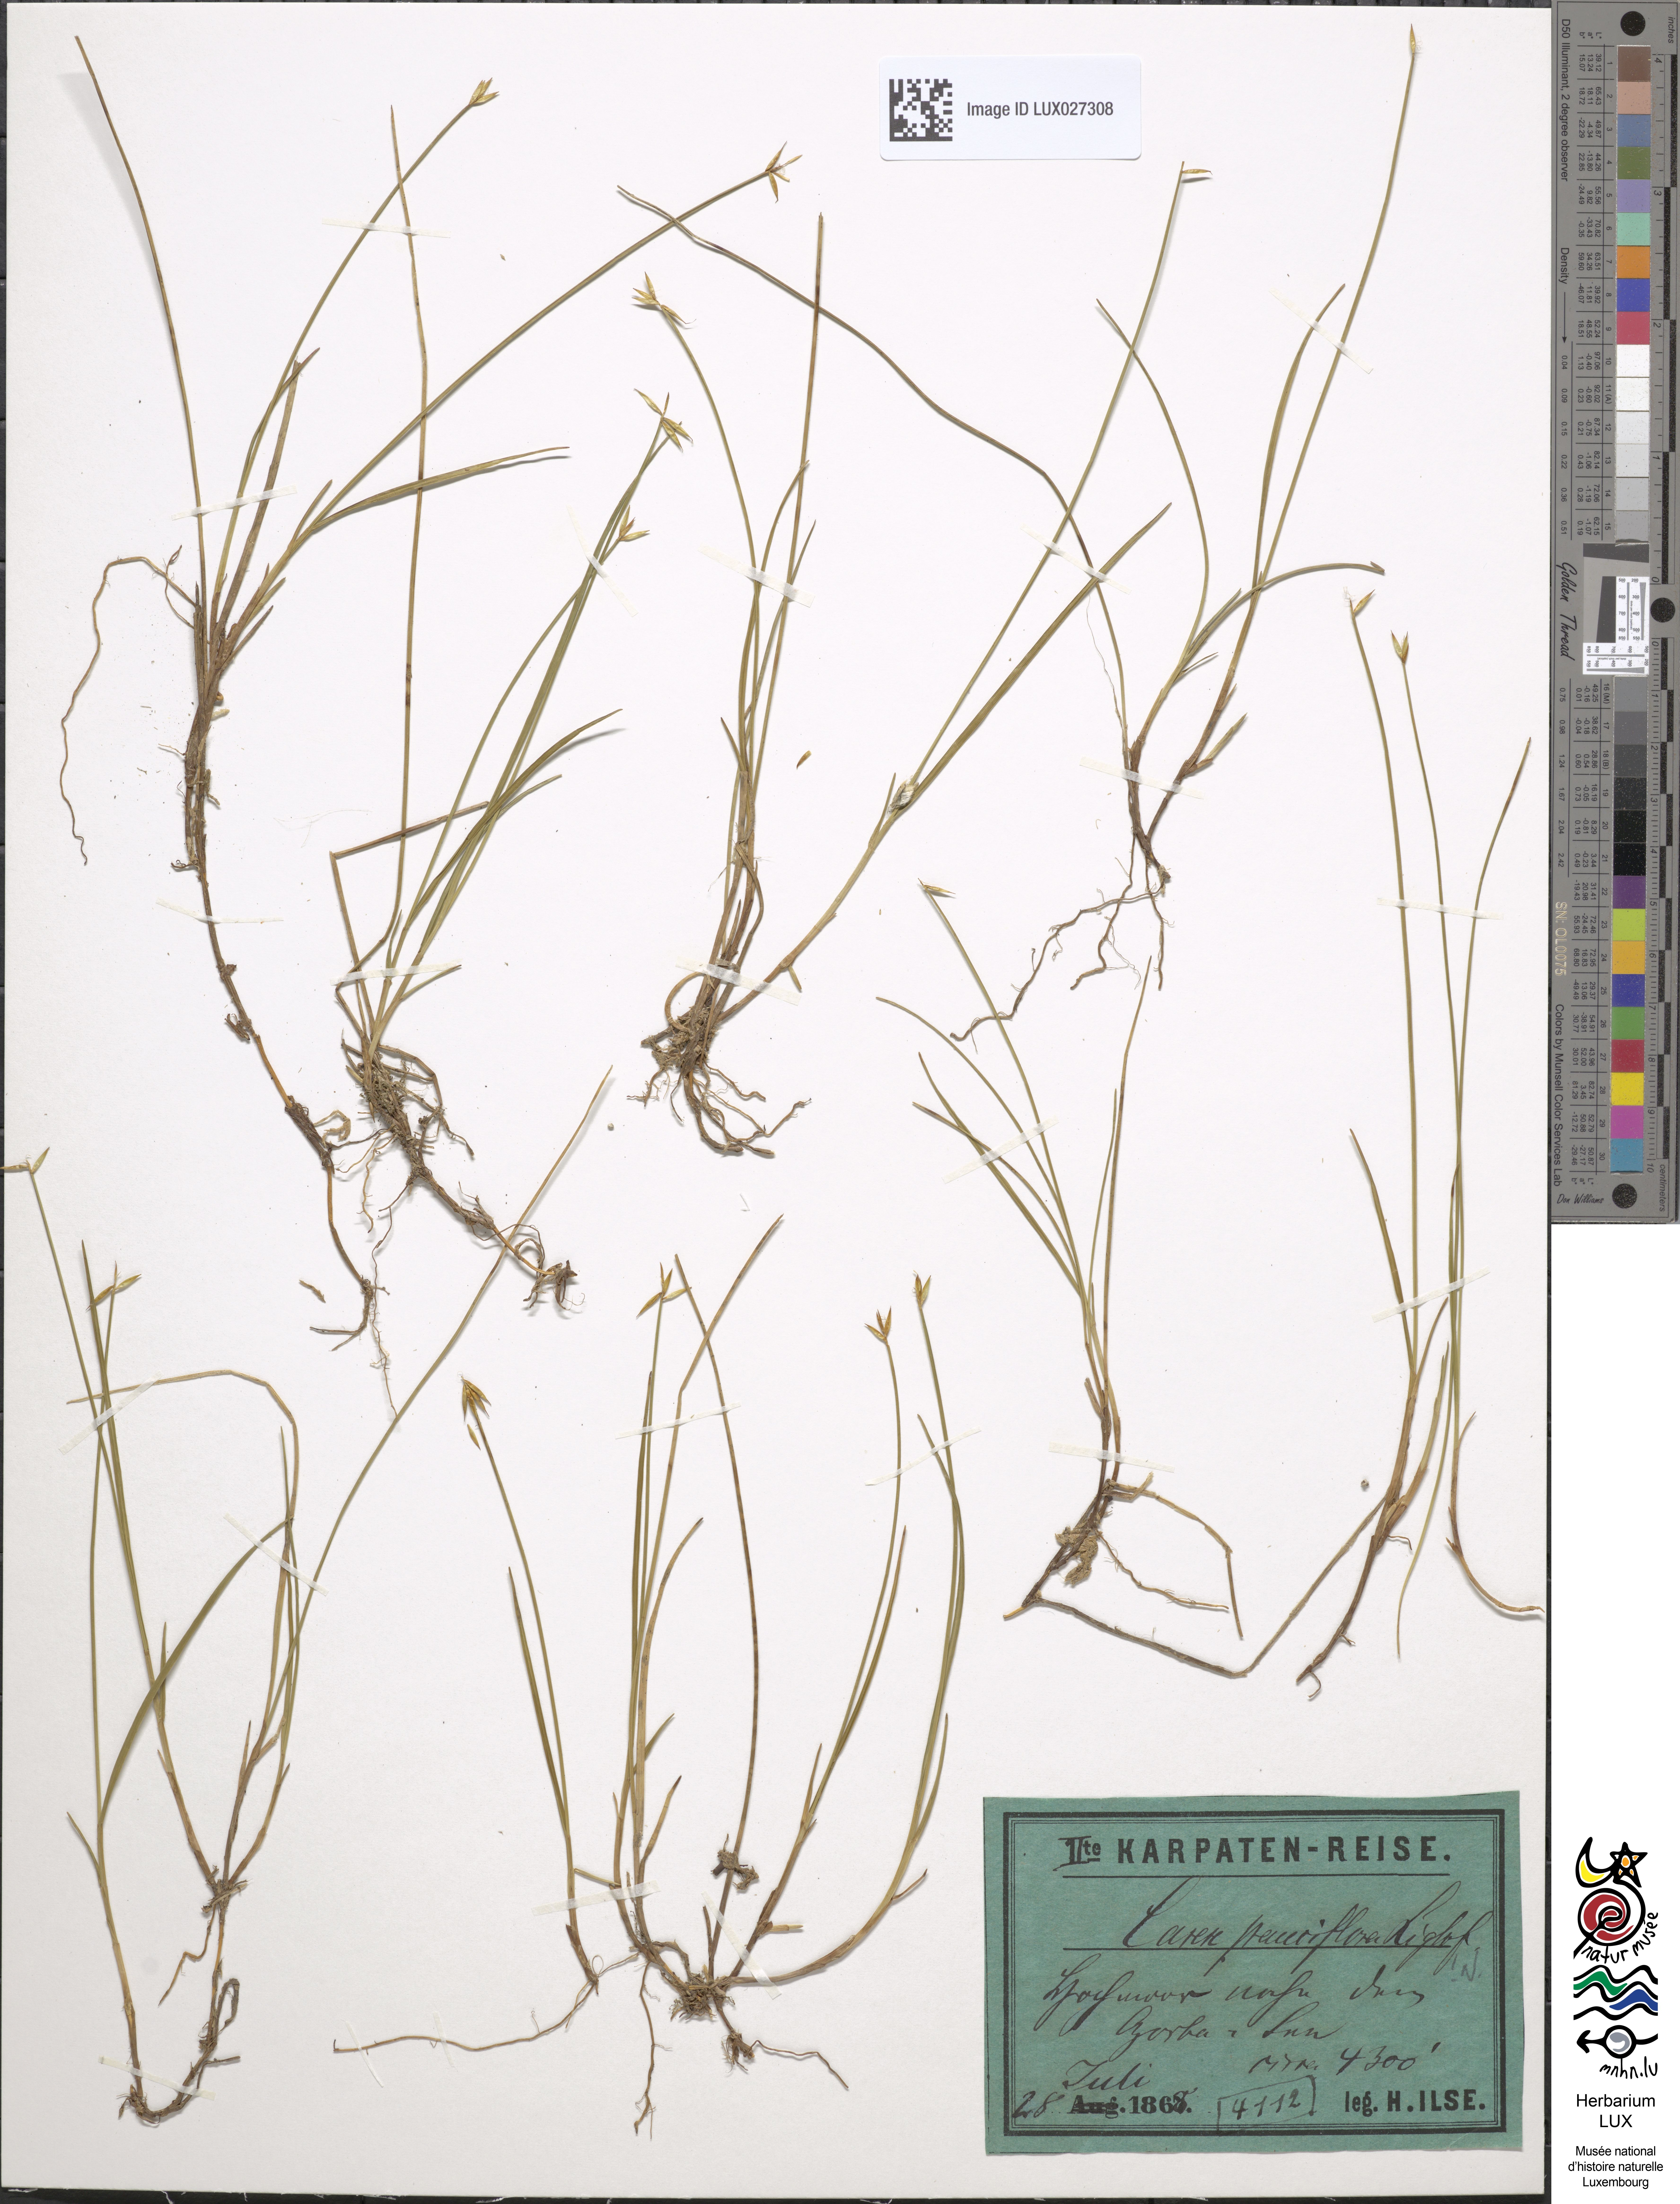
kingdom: Plantae
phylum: Tracheophyta
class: Liliopsida
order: Poales
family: Cyperaceae
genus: Carex
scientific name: Carex pauciflora
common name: Few-flowered sedge
